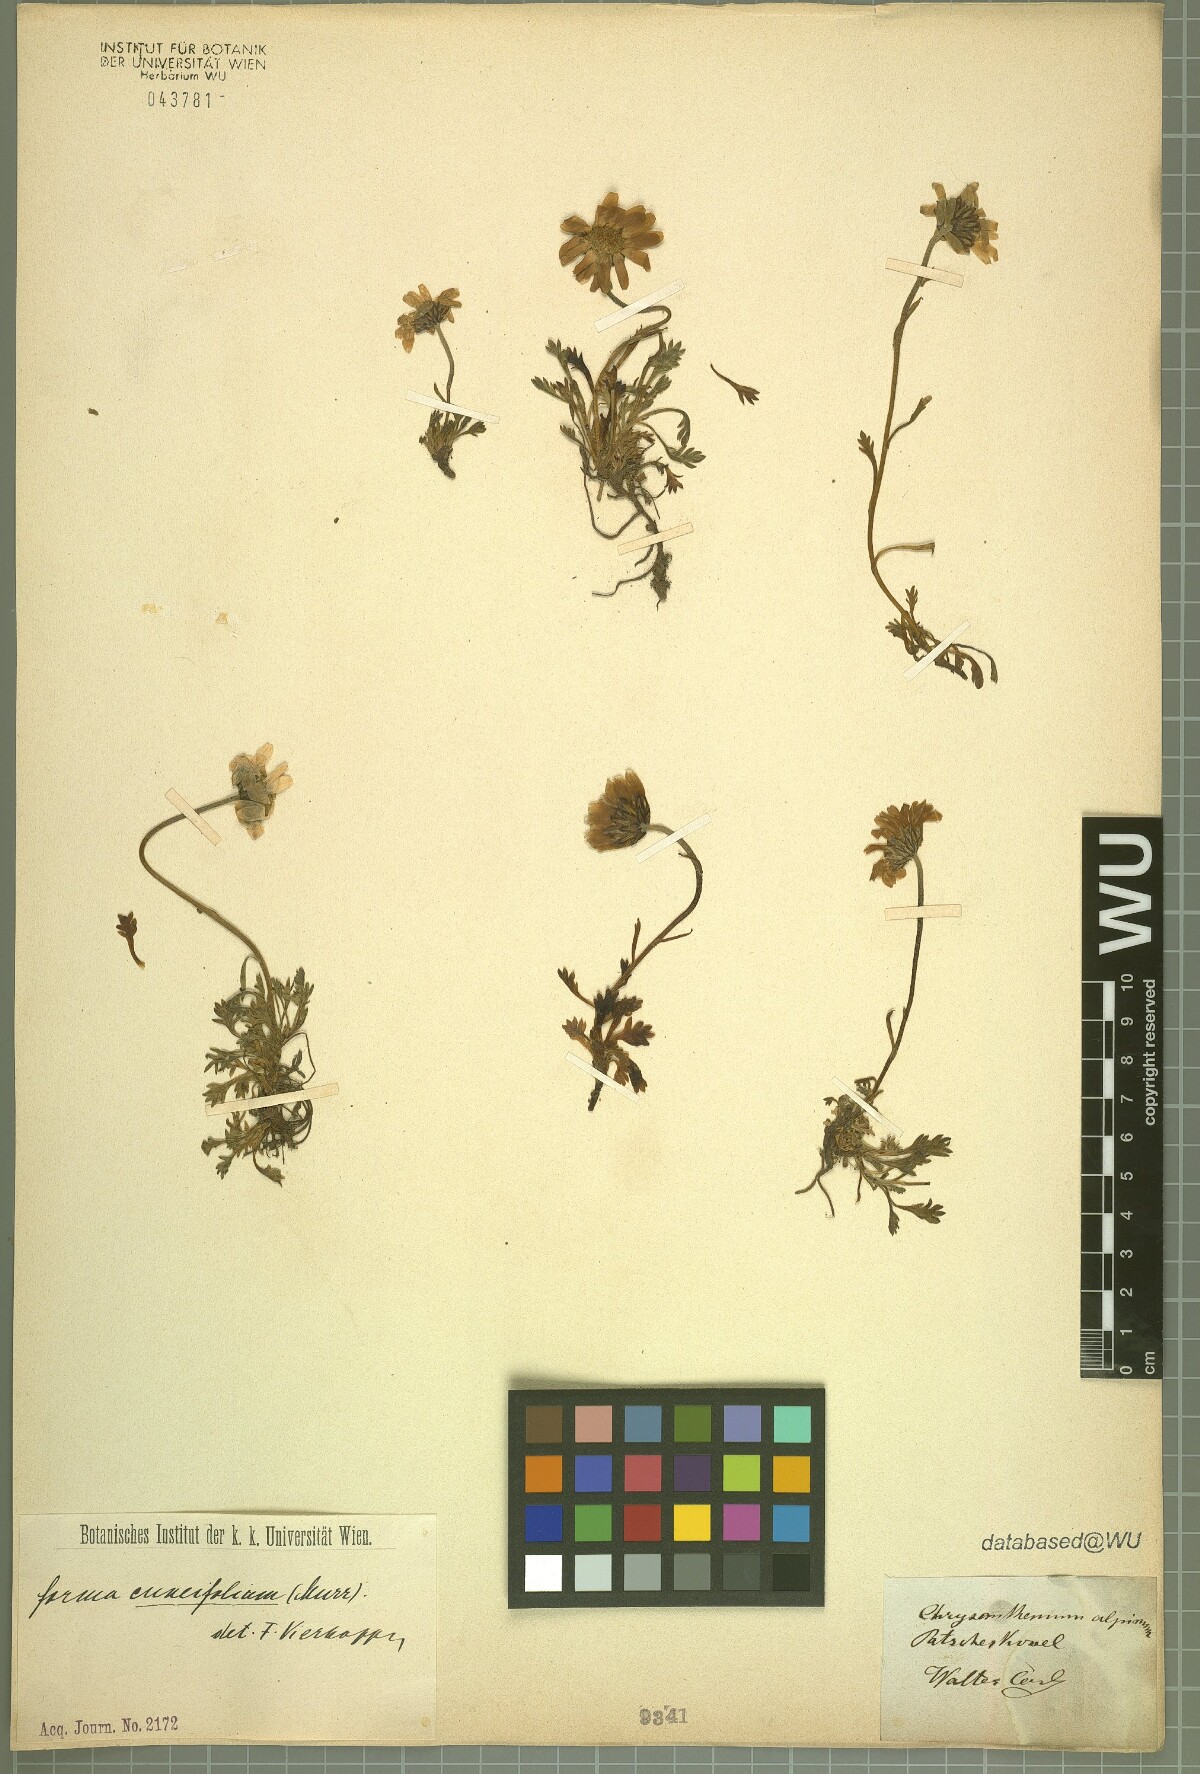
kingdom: Plantae
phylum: Tracheophyta
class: Magnoliopsida
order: Asterales
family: Asteraceae
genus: Leucanthemopsis
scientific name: Leucanthemopsis alpina
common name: Alpine moon daisy
